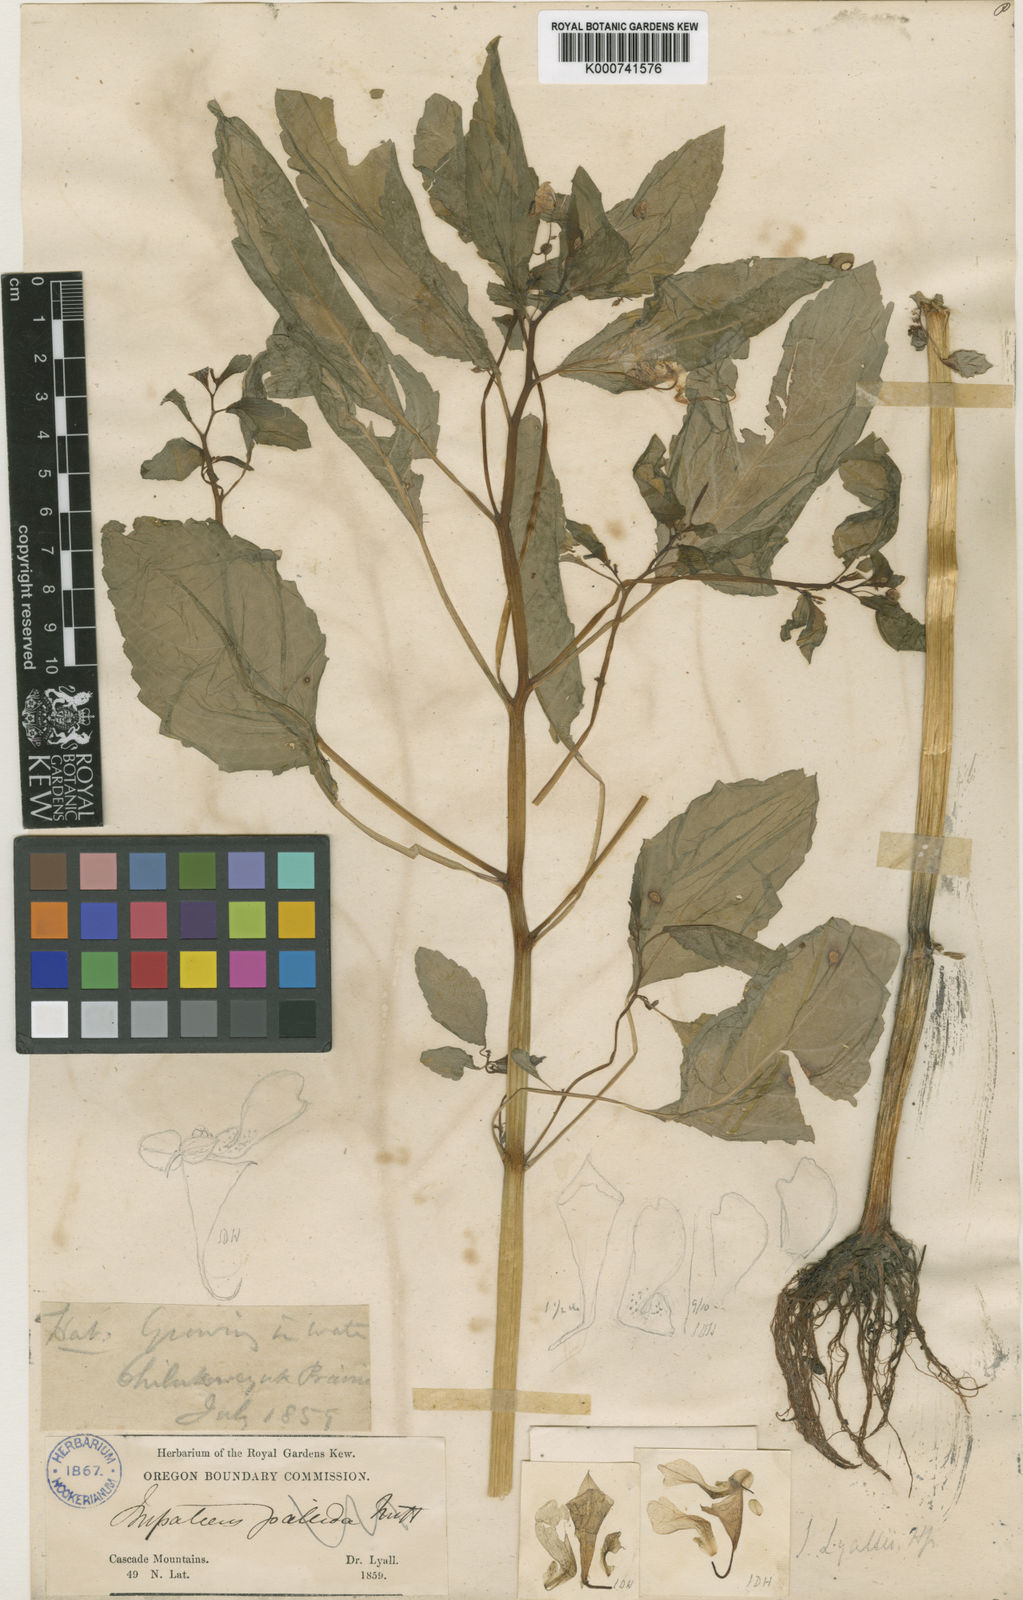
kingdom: Plantae
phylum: Tracheophyta
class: Magnoliopsida
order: Ericales
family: Balsaminaceae
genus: Impatiens
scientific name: Impatiens lyallii
